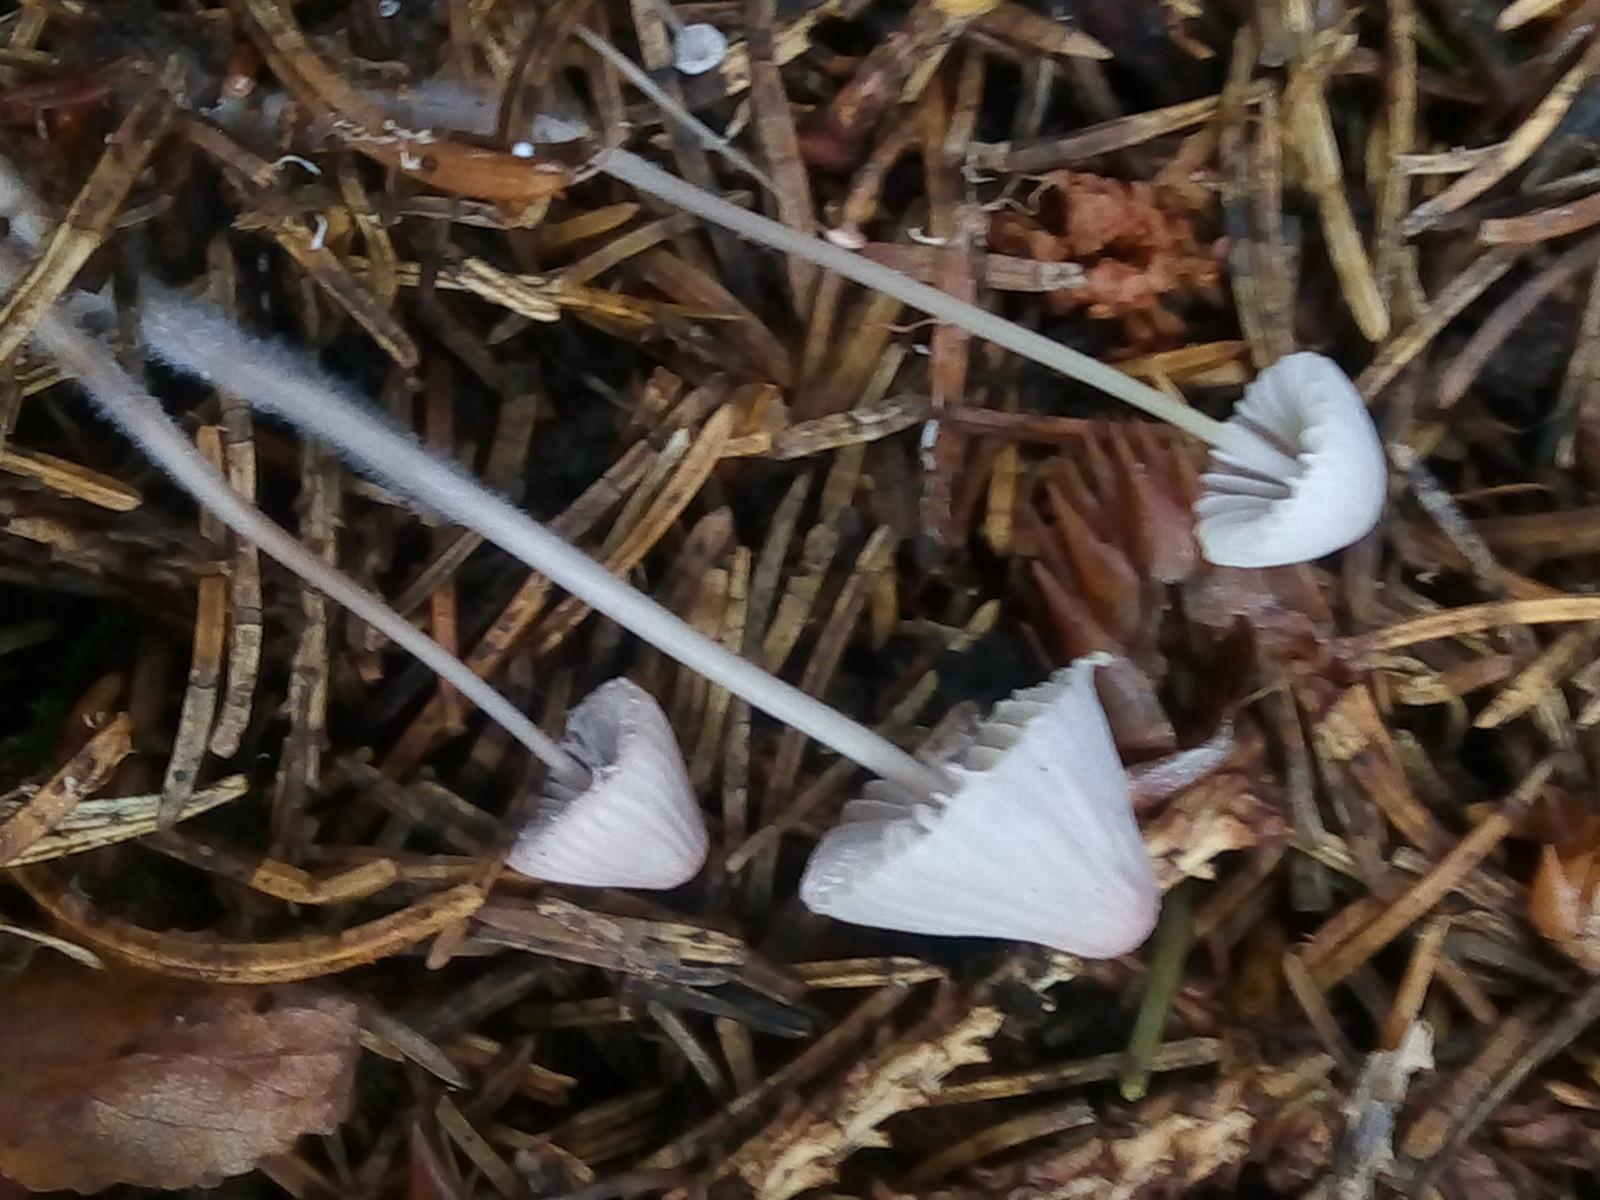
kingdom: Fungi
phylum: Basidiomycota
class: Agaricomycetes
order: Agaricales
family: Mycenaceae
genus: Mycena
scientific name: Mycena
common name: huesvamp
